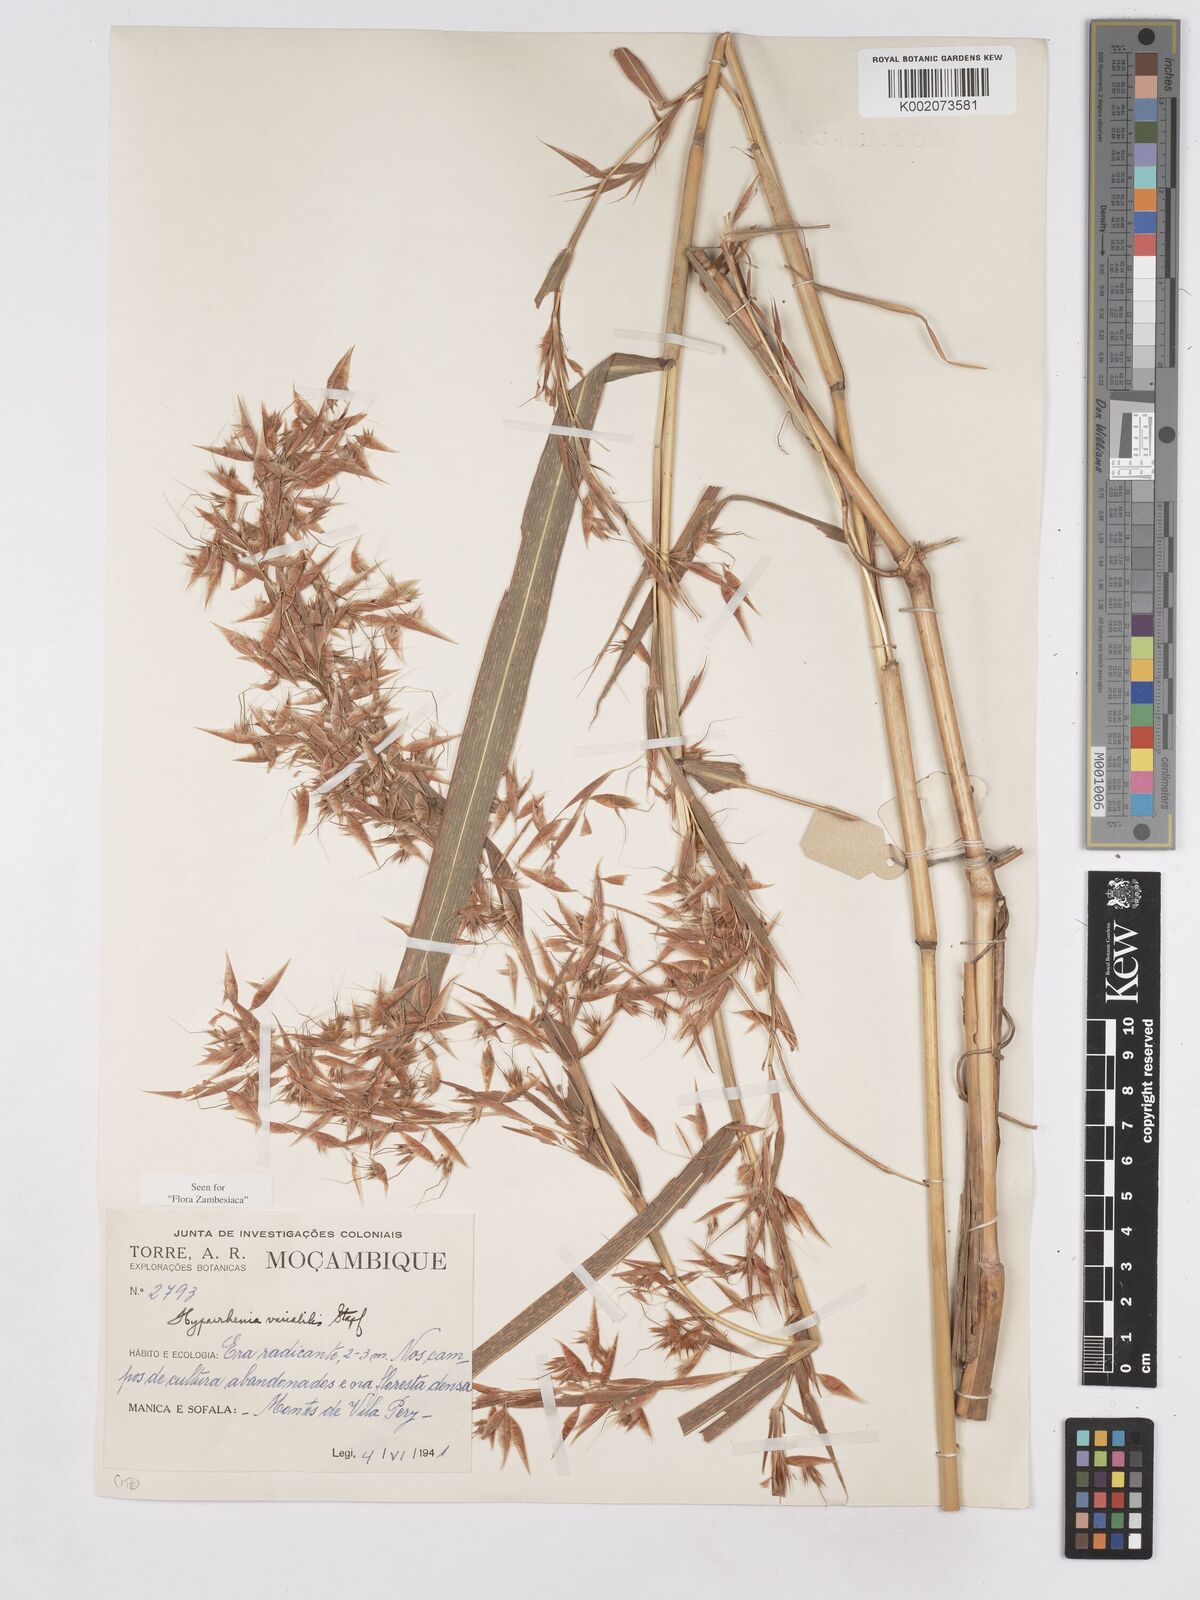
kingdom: Plantae
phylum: Tracheophyta
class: Liliopsida
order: Poales
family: Poaceae
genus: Hyparrhenia
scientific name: Hyparrhenia variabilis
